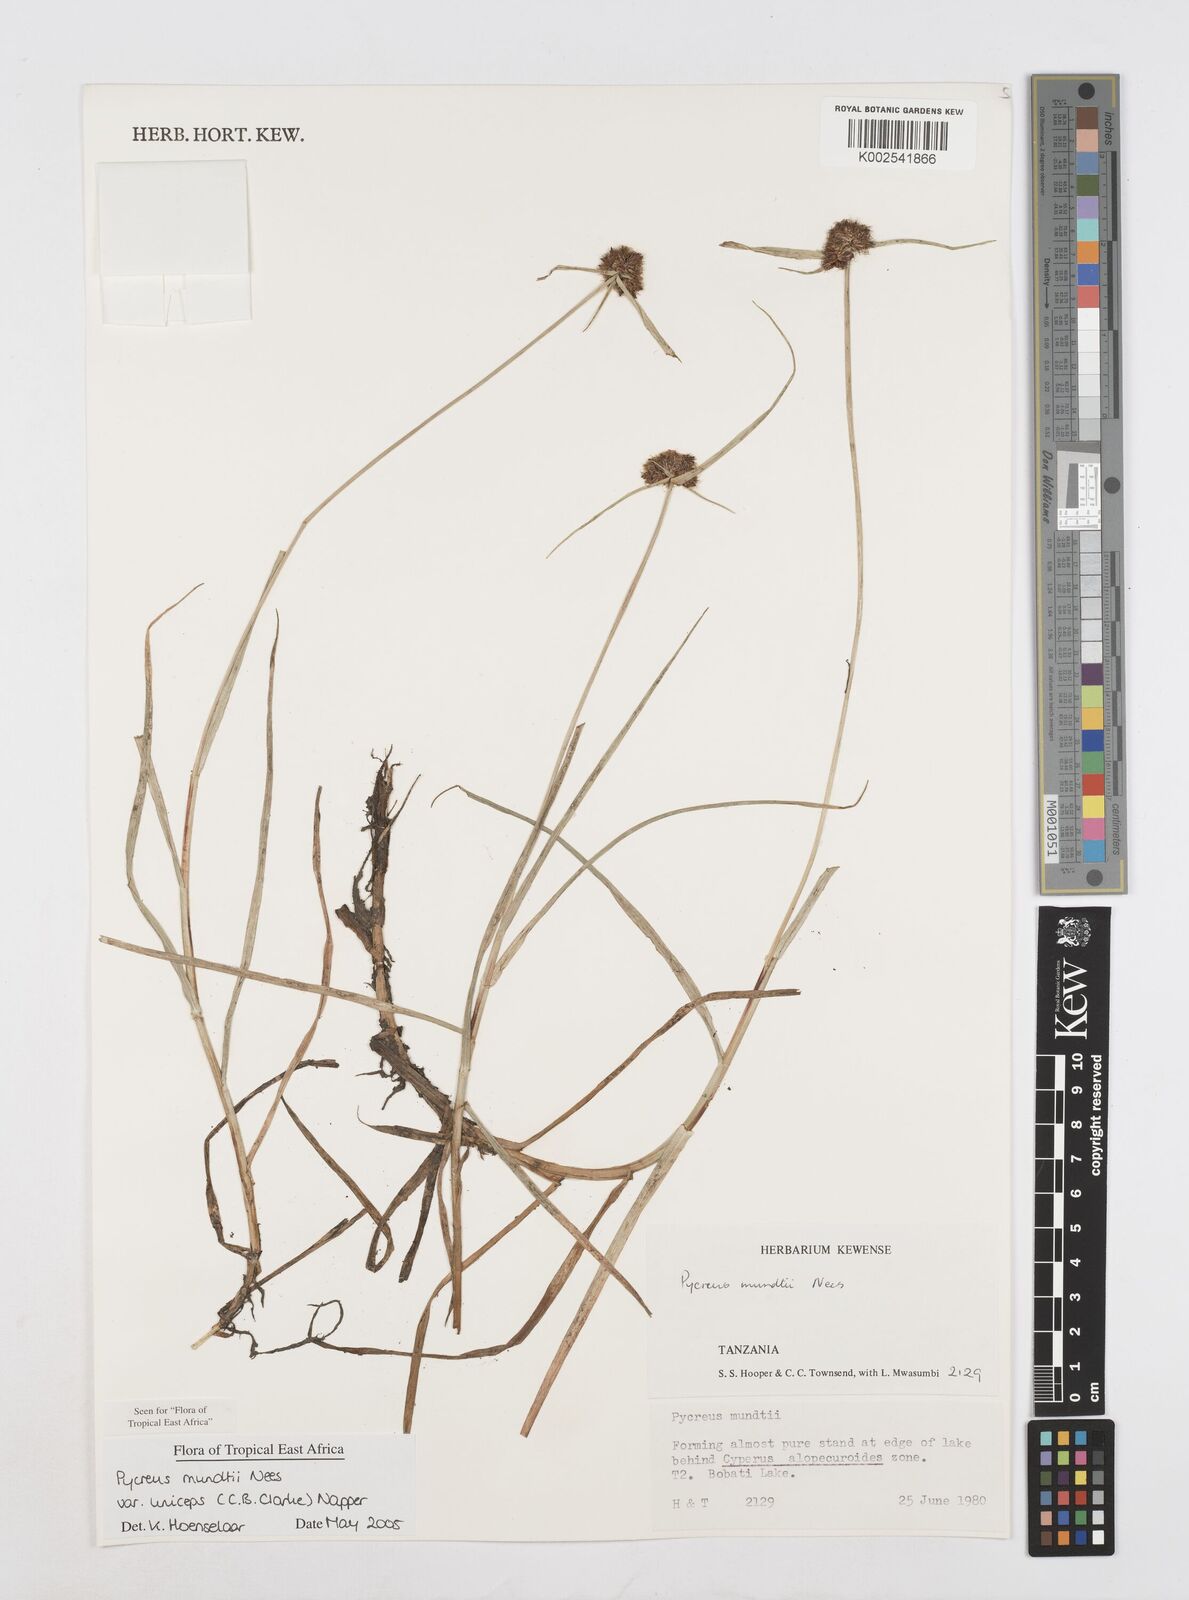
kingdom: Plantae
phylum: Tracheophyta
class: Liliopsida
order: Poales
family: Cyperaceae
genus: Cyperus
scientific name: Cyperus mundii
